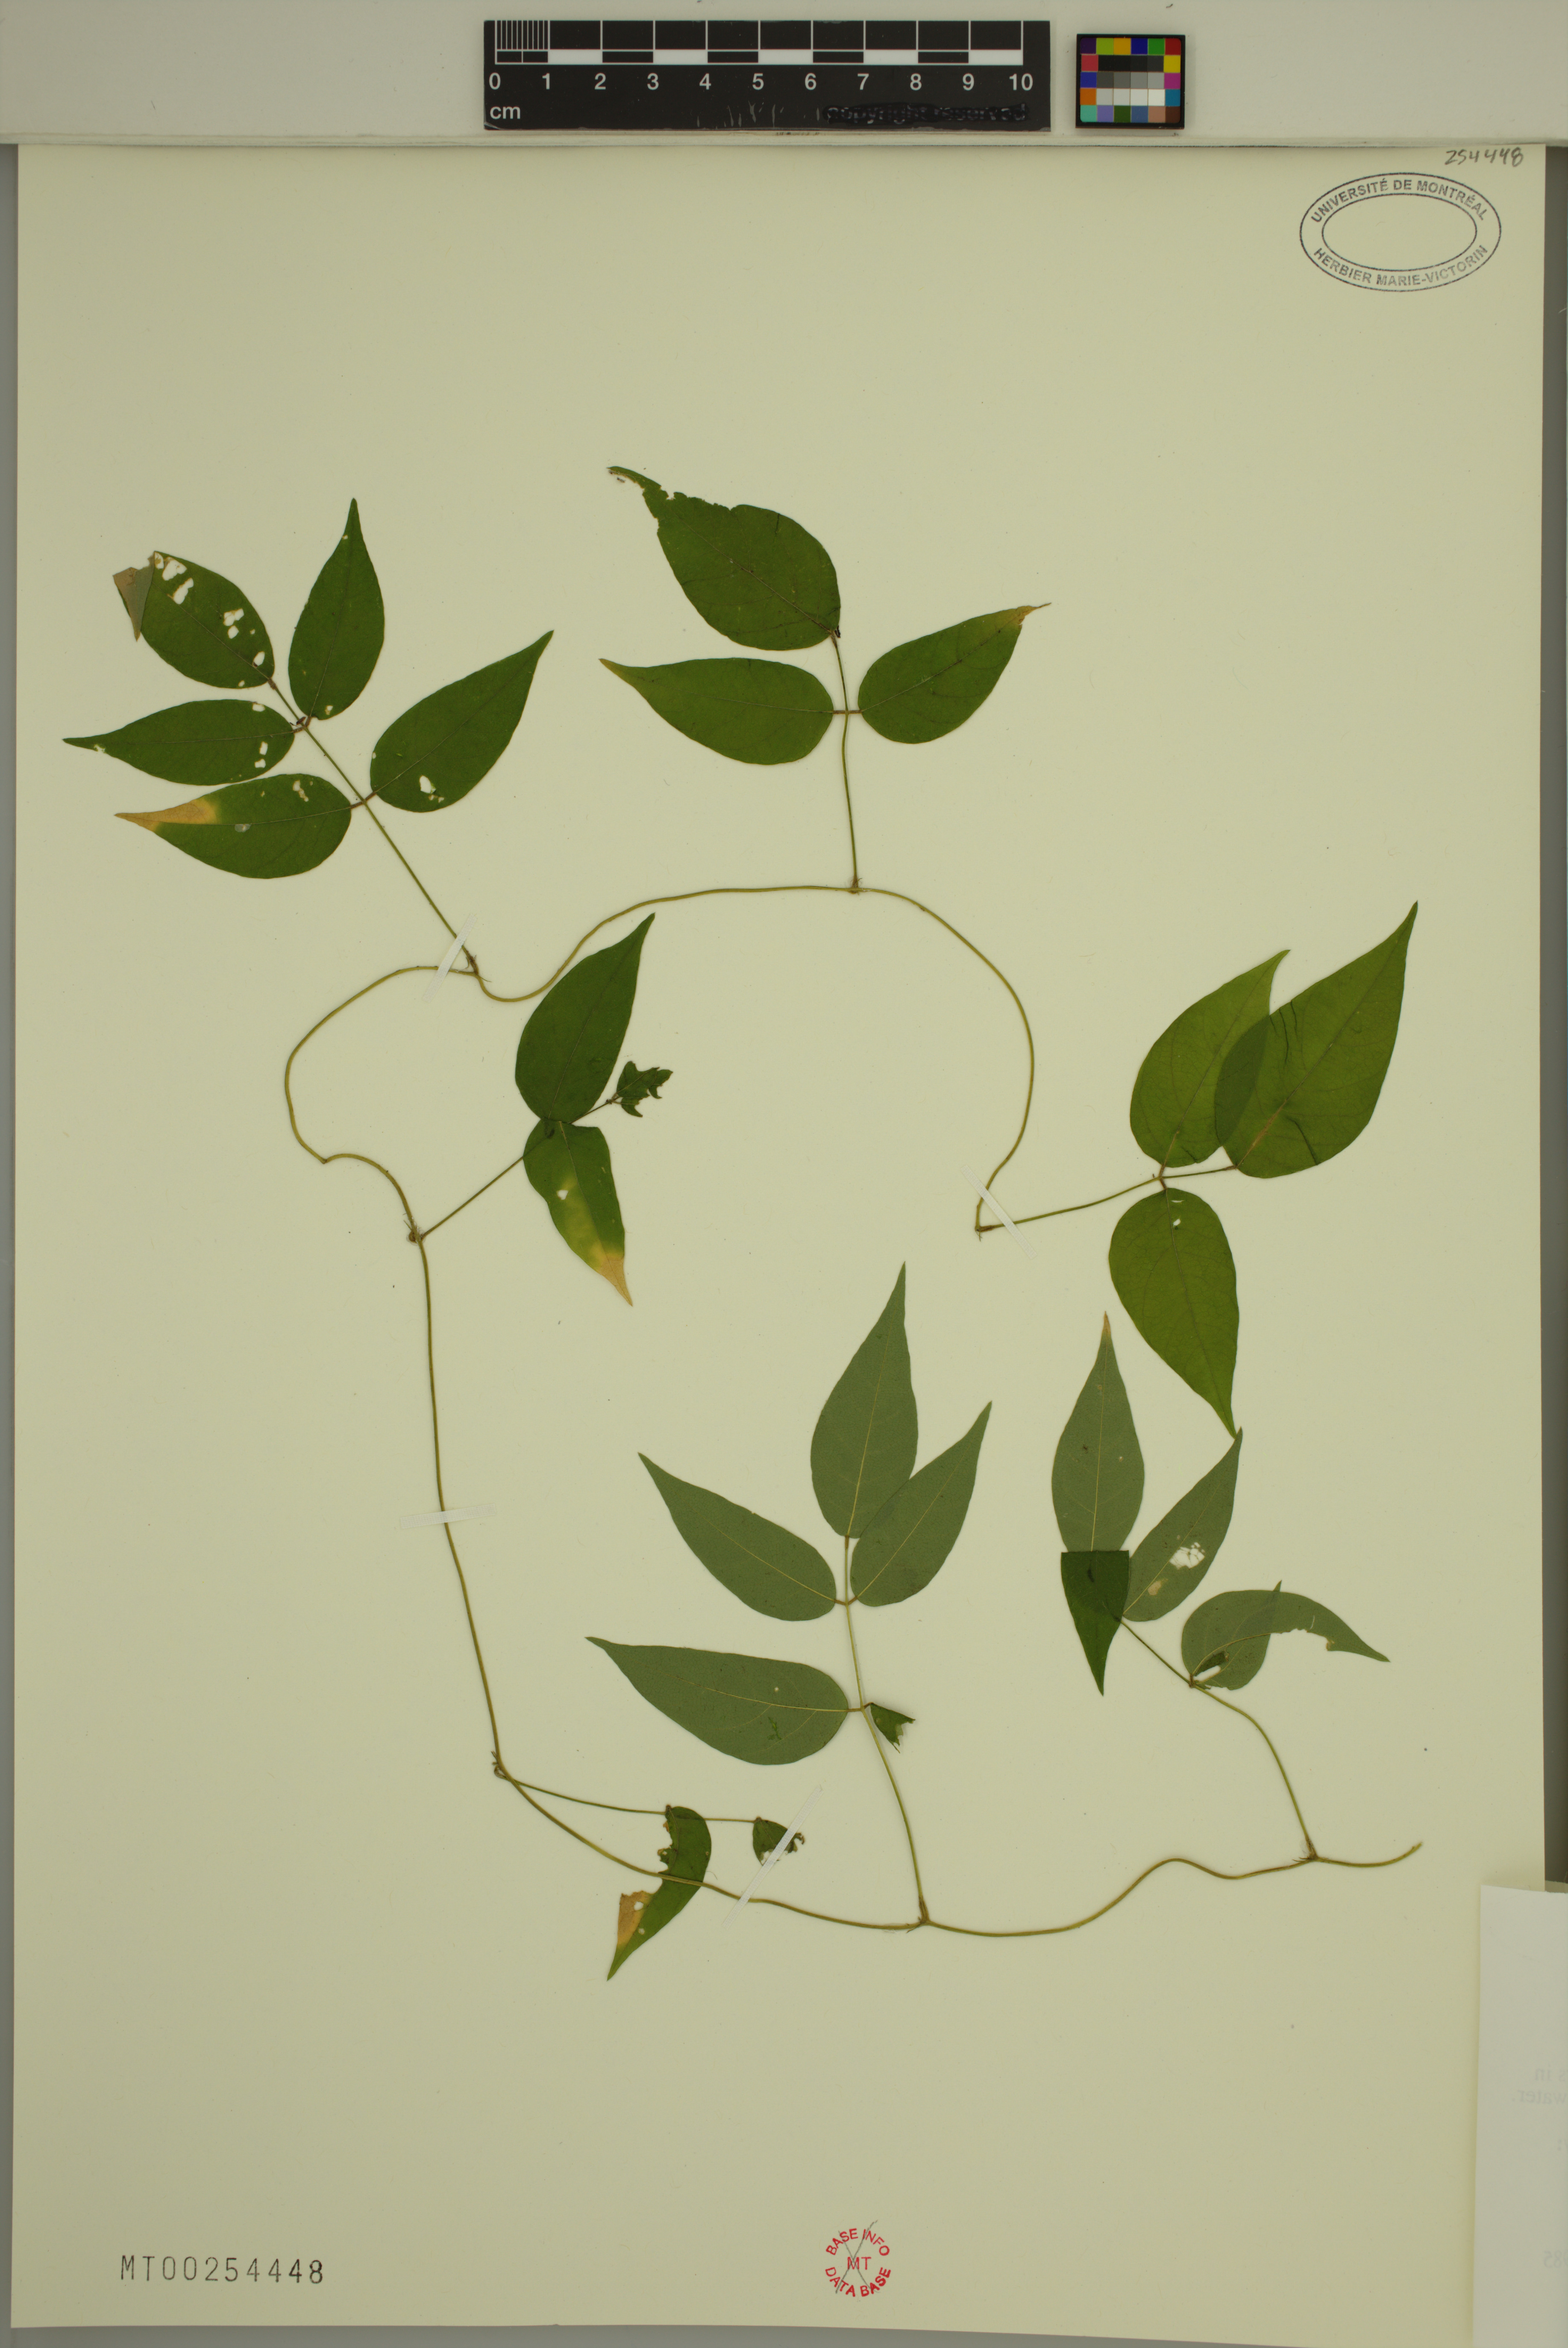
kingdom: Plantae
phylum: Tracheophyta
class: Magnoliopsida
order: Fabales
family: Fabaceae
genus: Apios
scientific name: Apios americana
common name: American potato-bean
